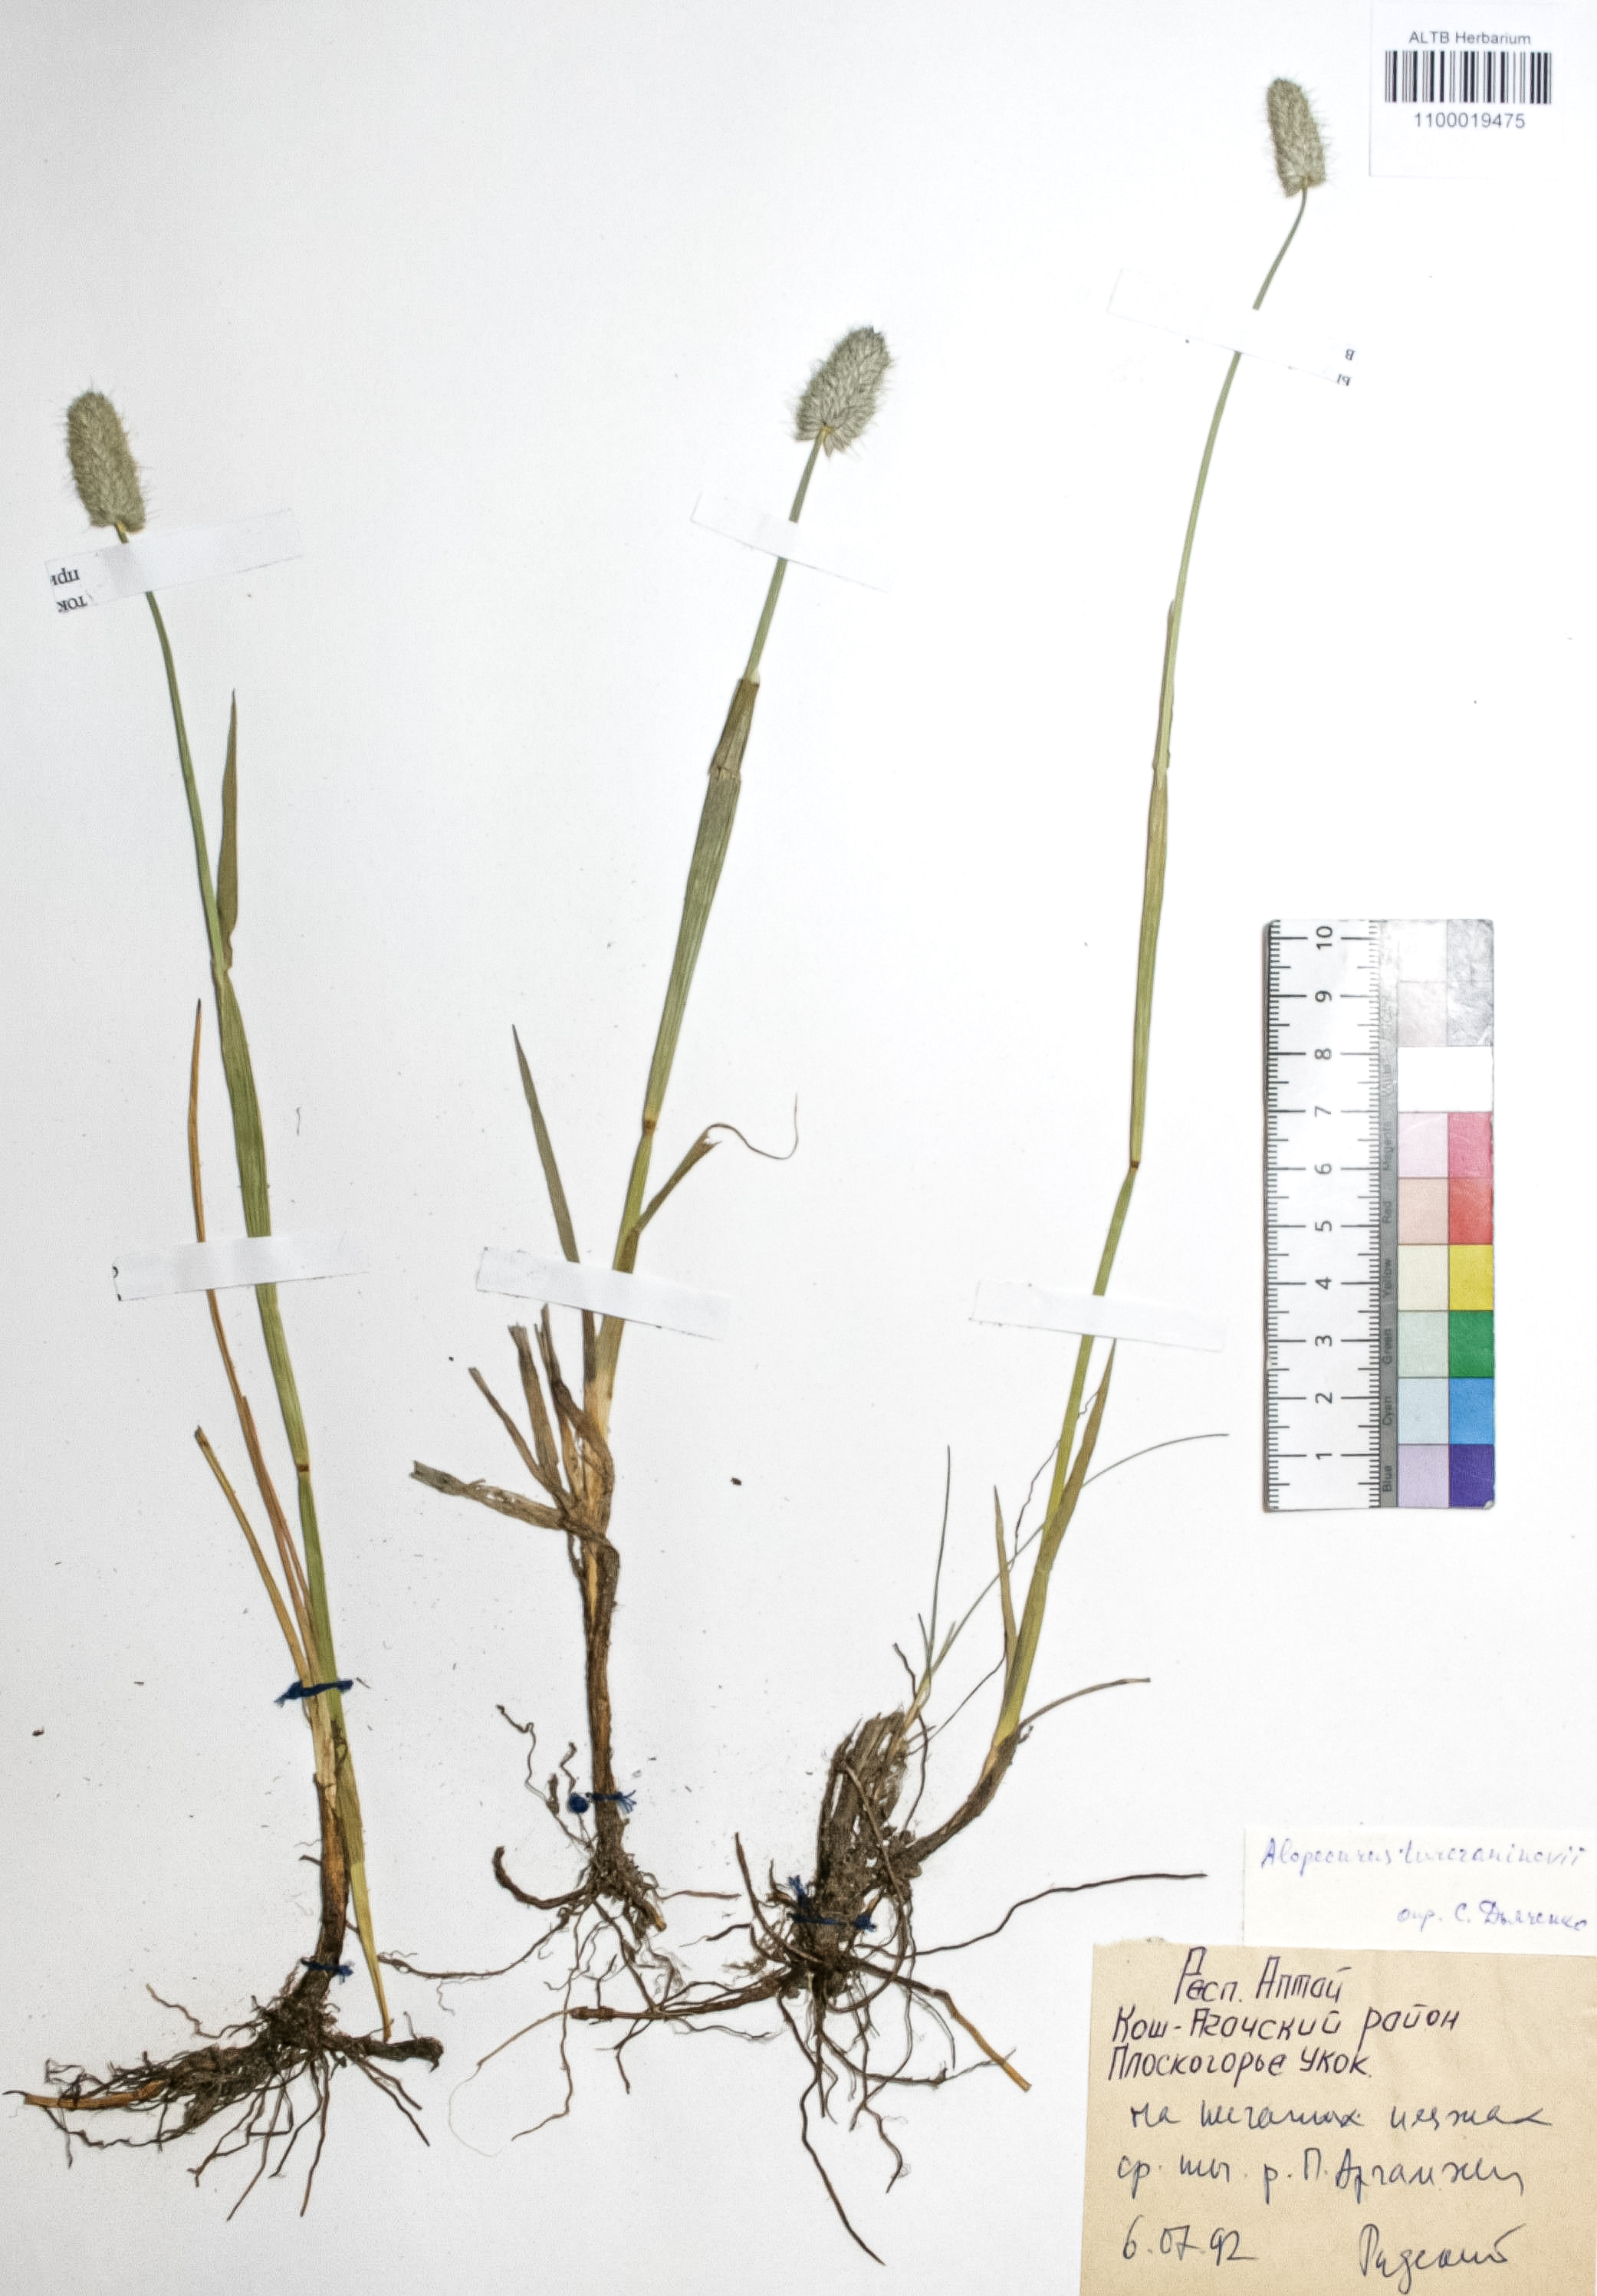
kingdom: Plantae
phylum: Tracheophyta
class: Liliopsida
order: Poales
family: Poaceae
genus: Alopecurus
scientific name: Alopecurus turczaninovii
